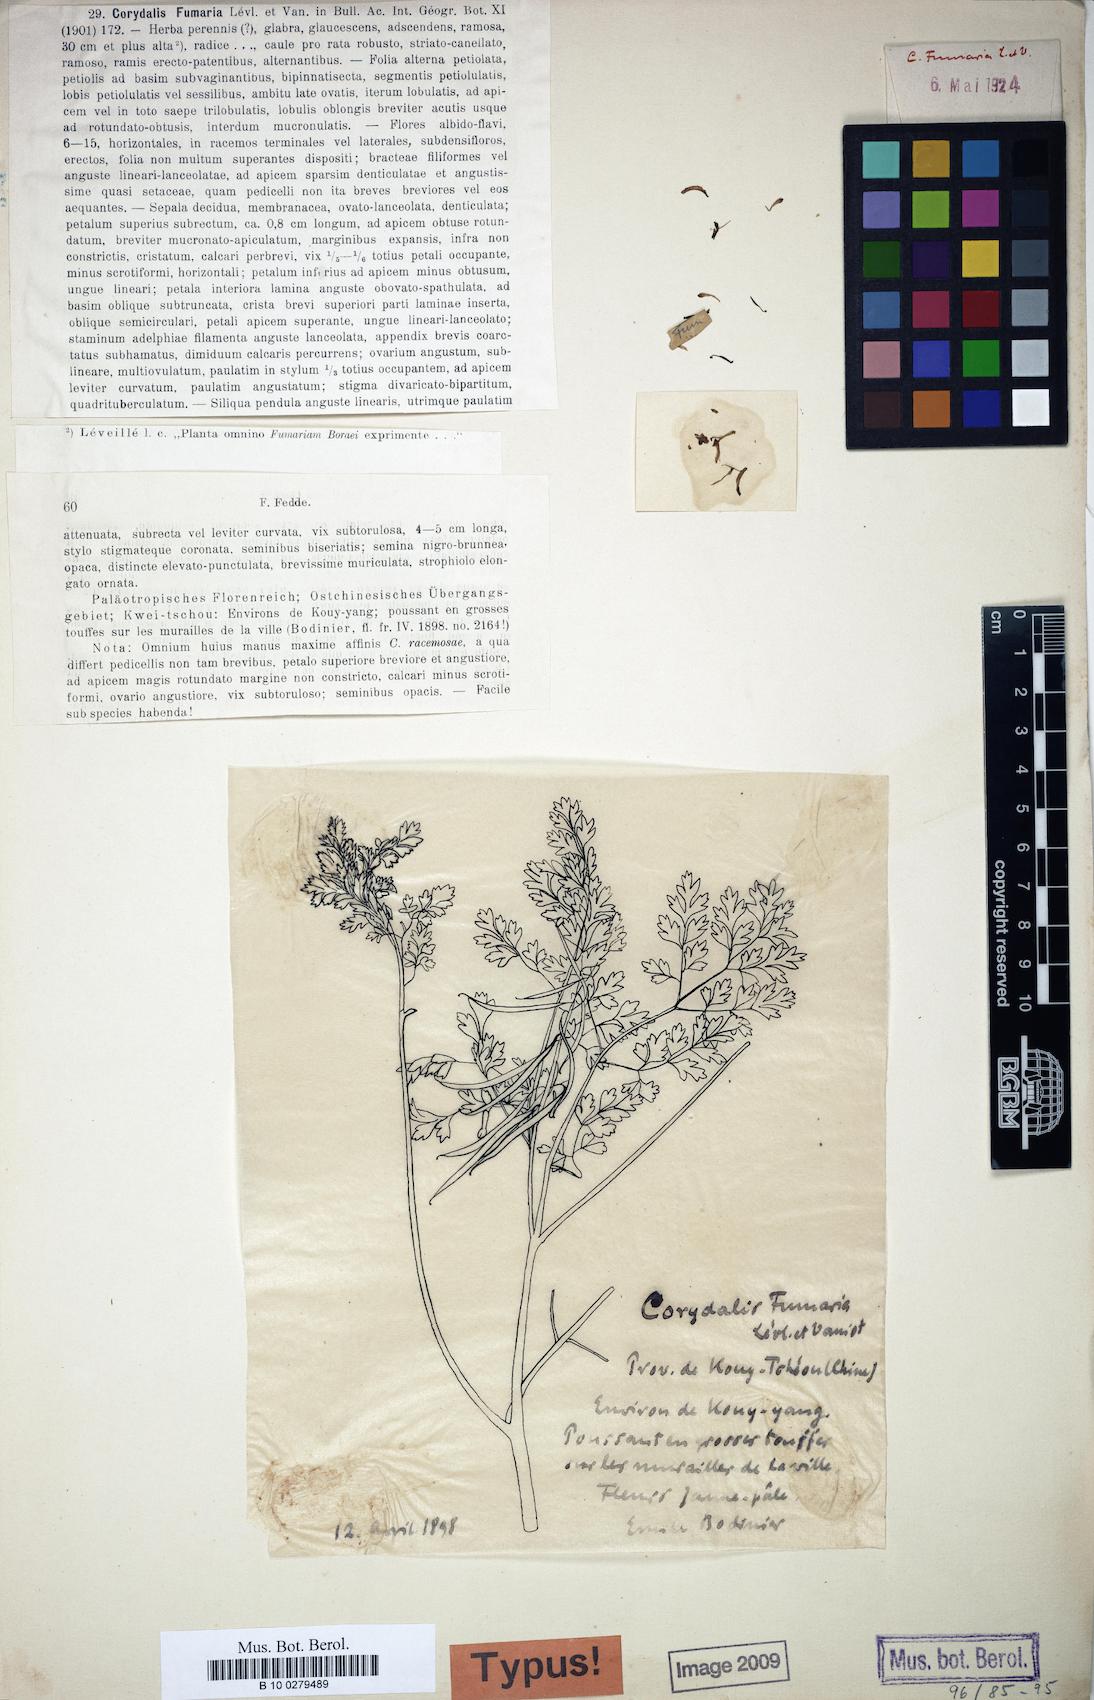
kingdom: Plantae
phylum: Tracheophyta
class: Magnoliopsida
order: Ranunculales
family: Papaveraceae
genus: Corydalis
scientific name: Corydalis racemosa
